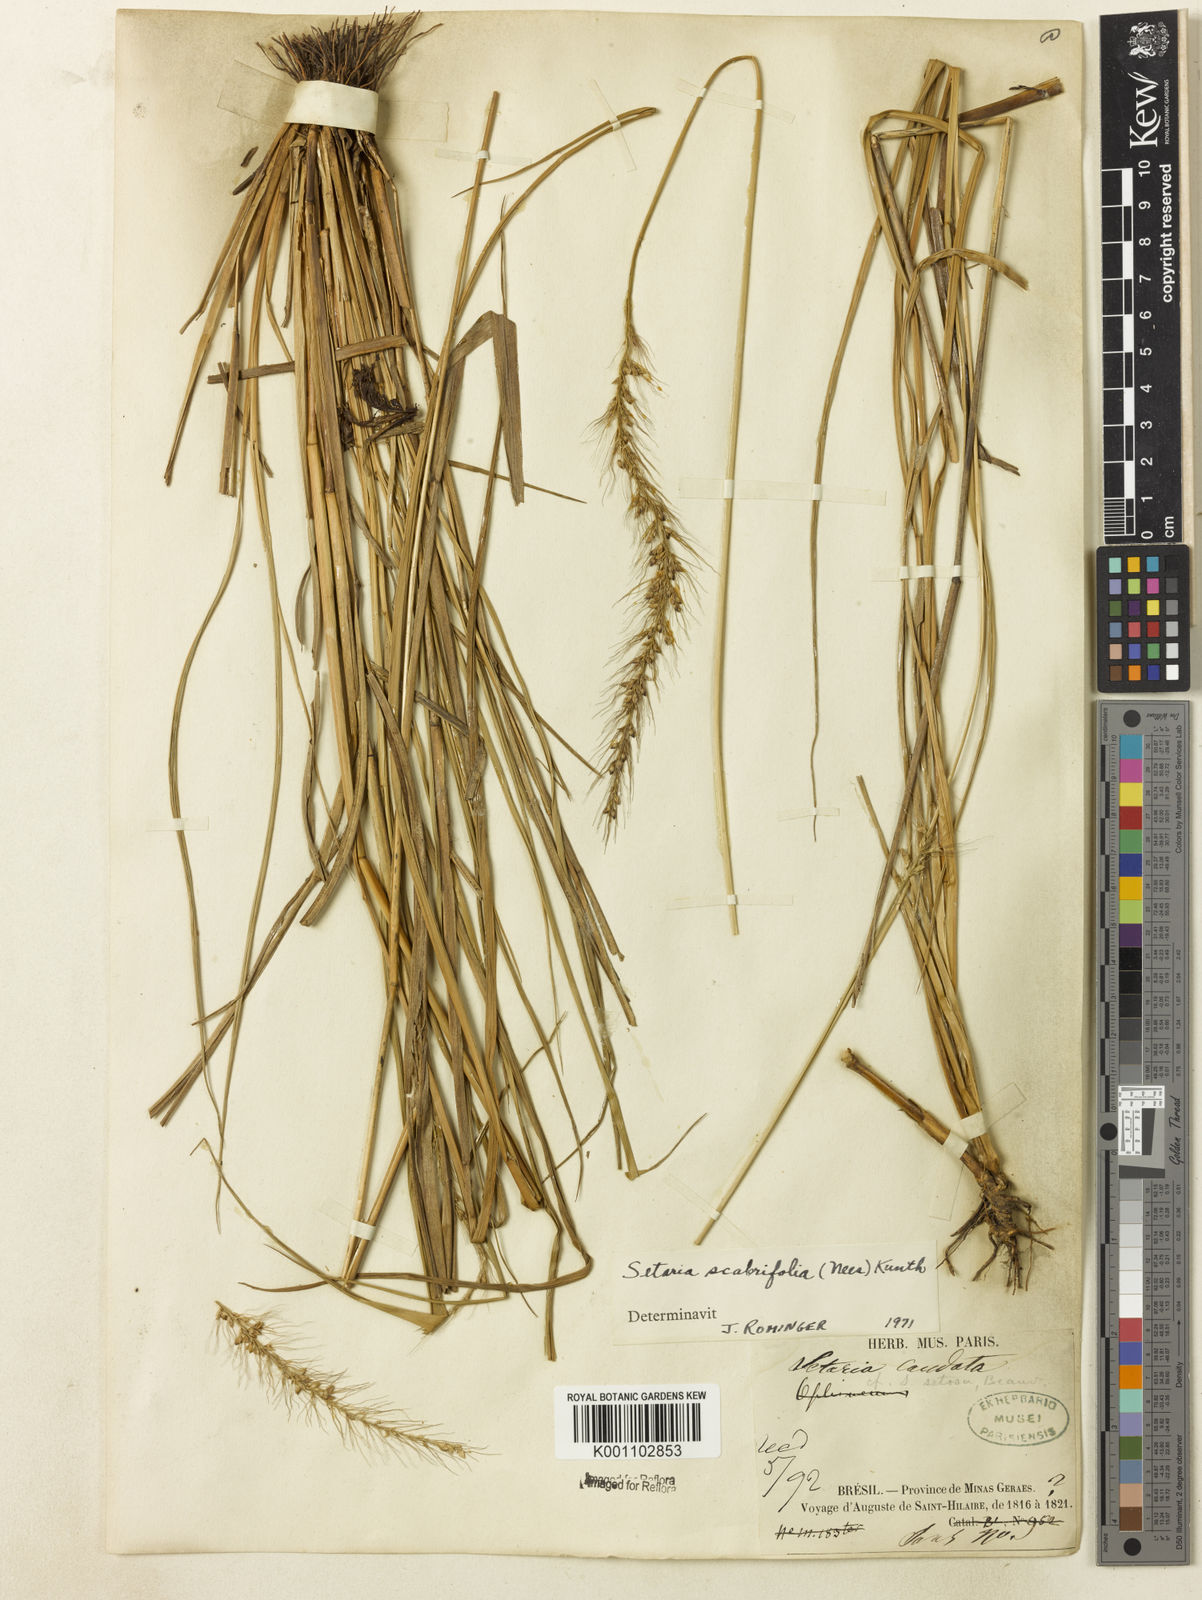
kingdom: Plantae
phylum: Tracheophyta
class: Liliopsida
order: Poales
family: Poaceae
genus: Setaria
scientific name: Setaria scabrifolia
